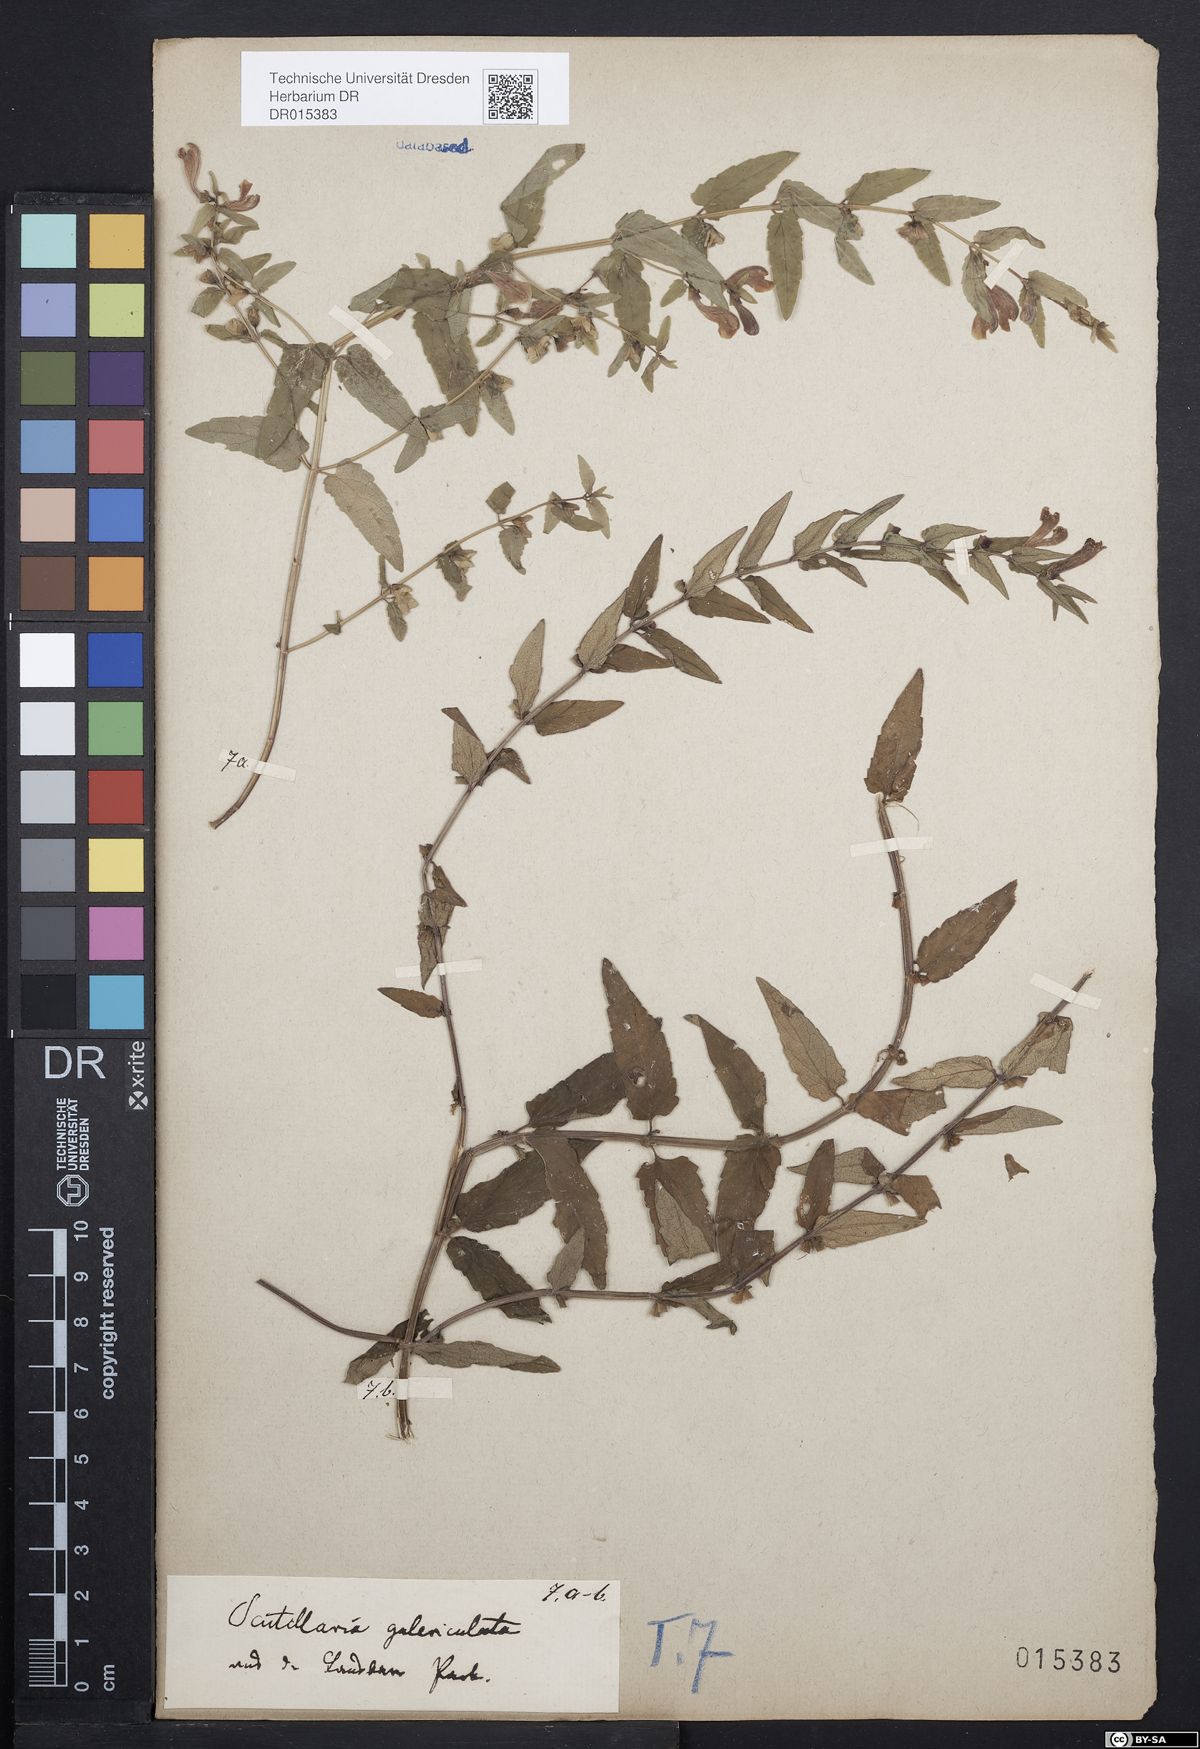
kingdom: Plantae
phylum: Tracheophyta
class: Magnoliopsida
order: Lamiales
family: Lamiaceae
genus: Scutellaria
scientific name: Scutellaria galericulata
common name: Skullcap
